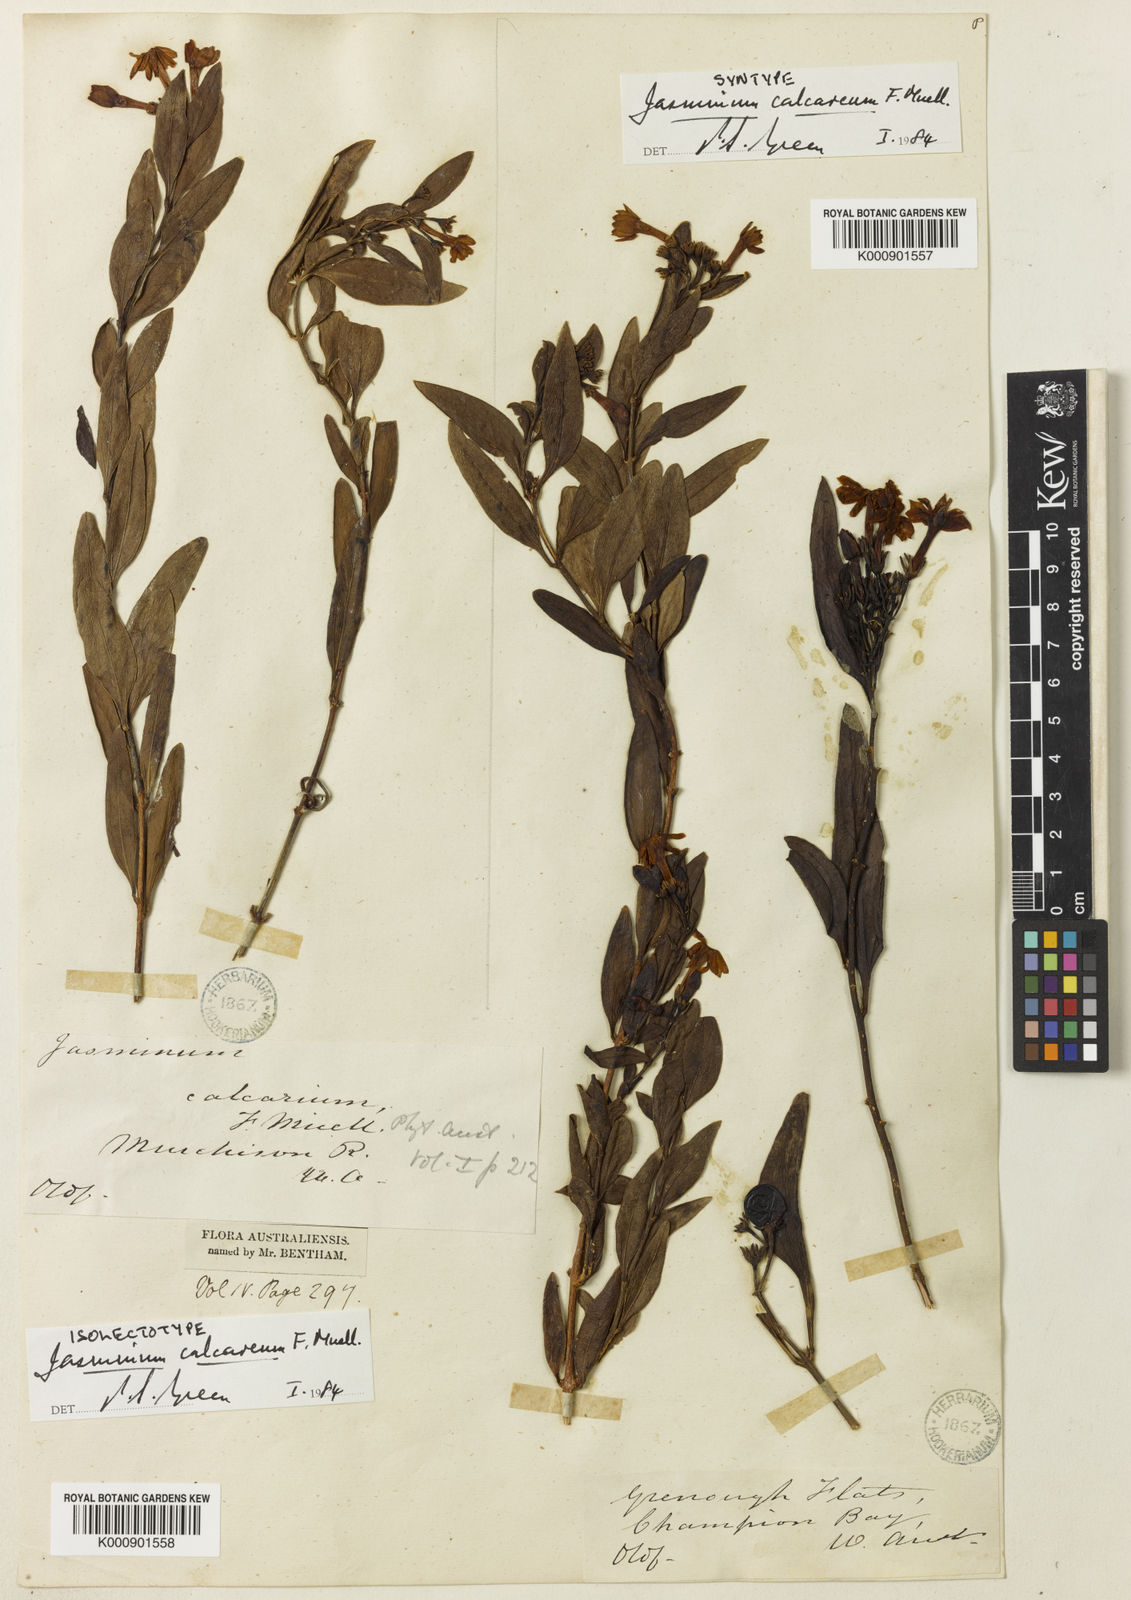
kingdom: Plantae
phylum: Tracheophyta
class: Magnoliopsida
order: Lamiales
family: Oleaceae
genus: Jasminum
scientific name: Jasminum calcareum
